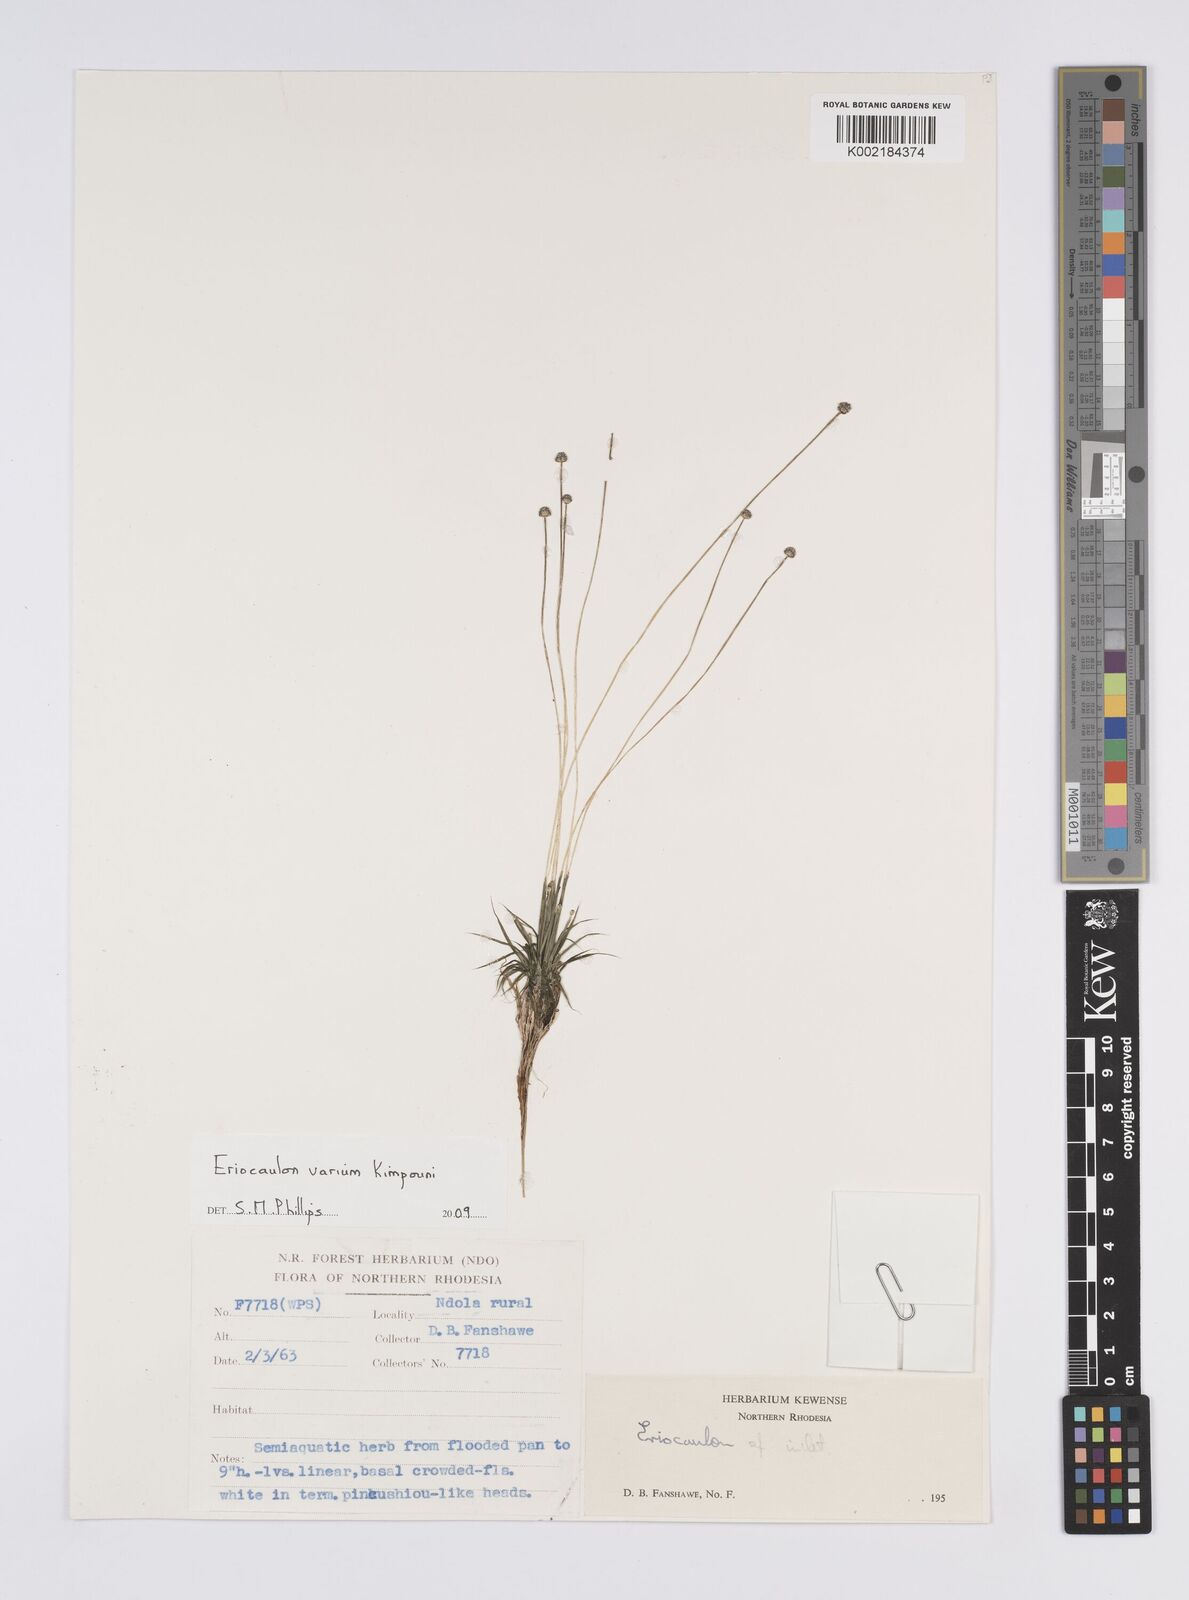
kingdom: Plantae
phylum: Tracheophyta
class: Liliopsida
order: Poales
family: Eriocaulaceae
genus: Eriocaulon
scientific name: Eriocaulon varium
